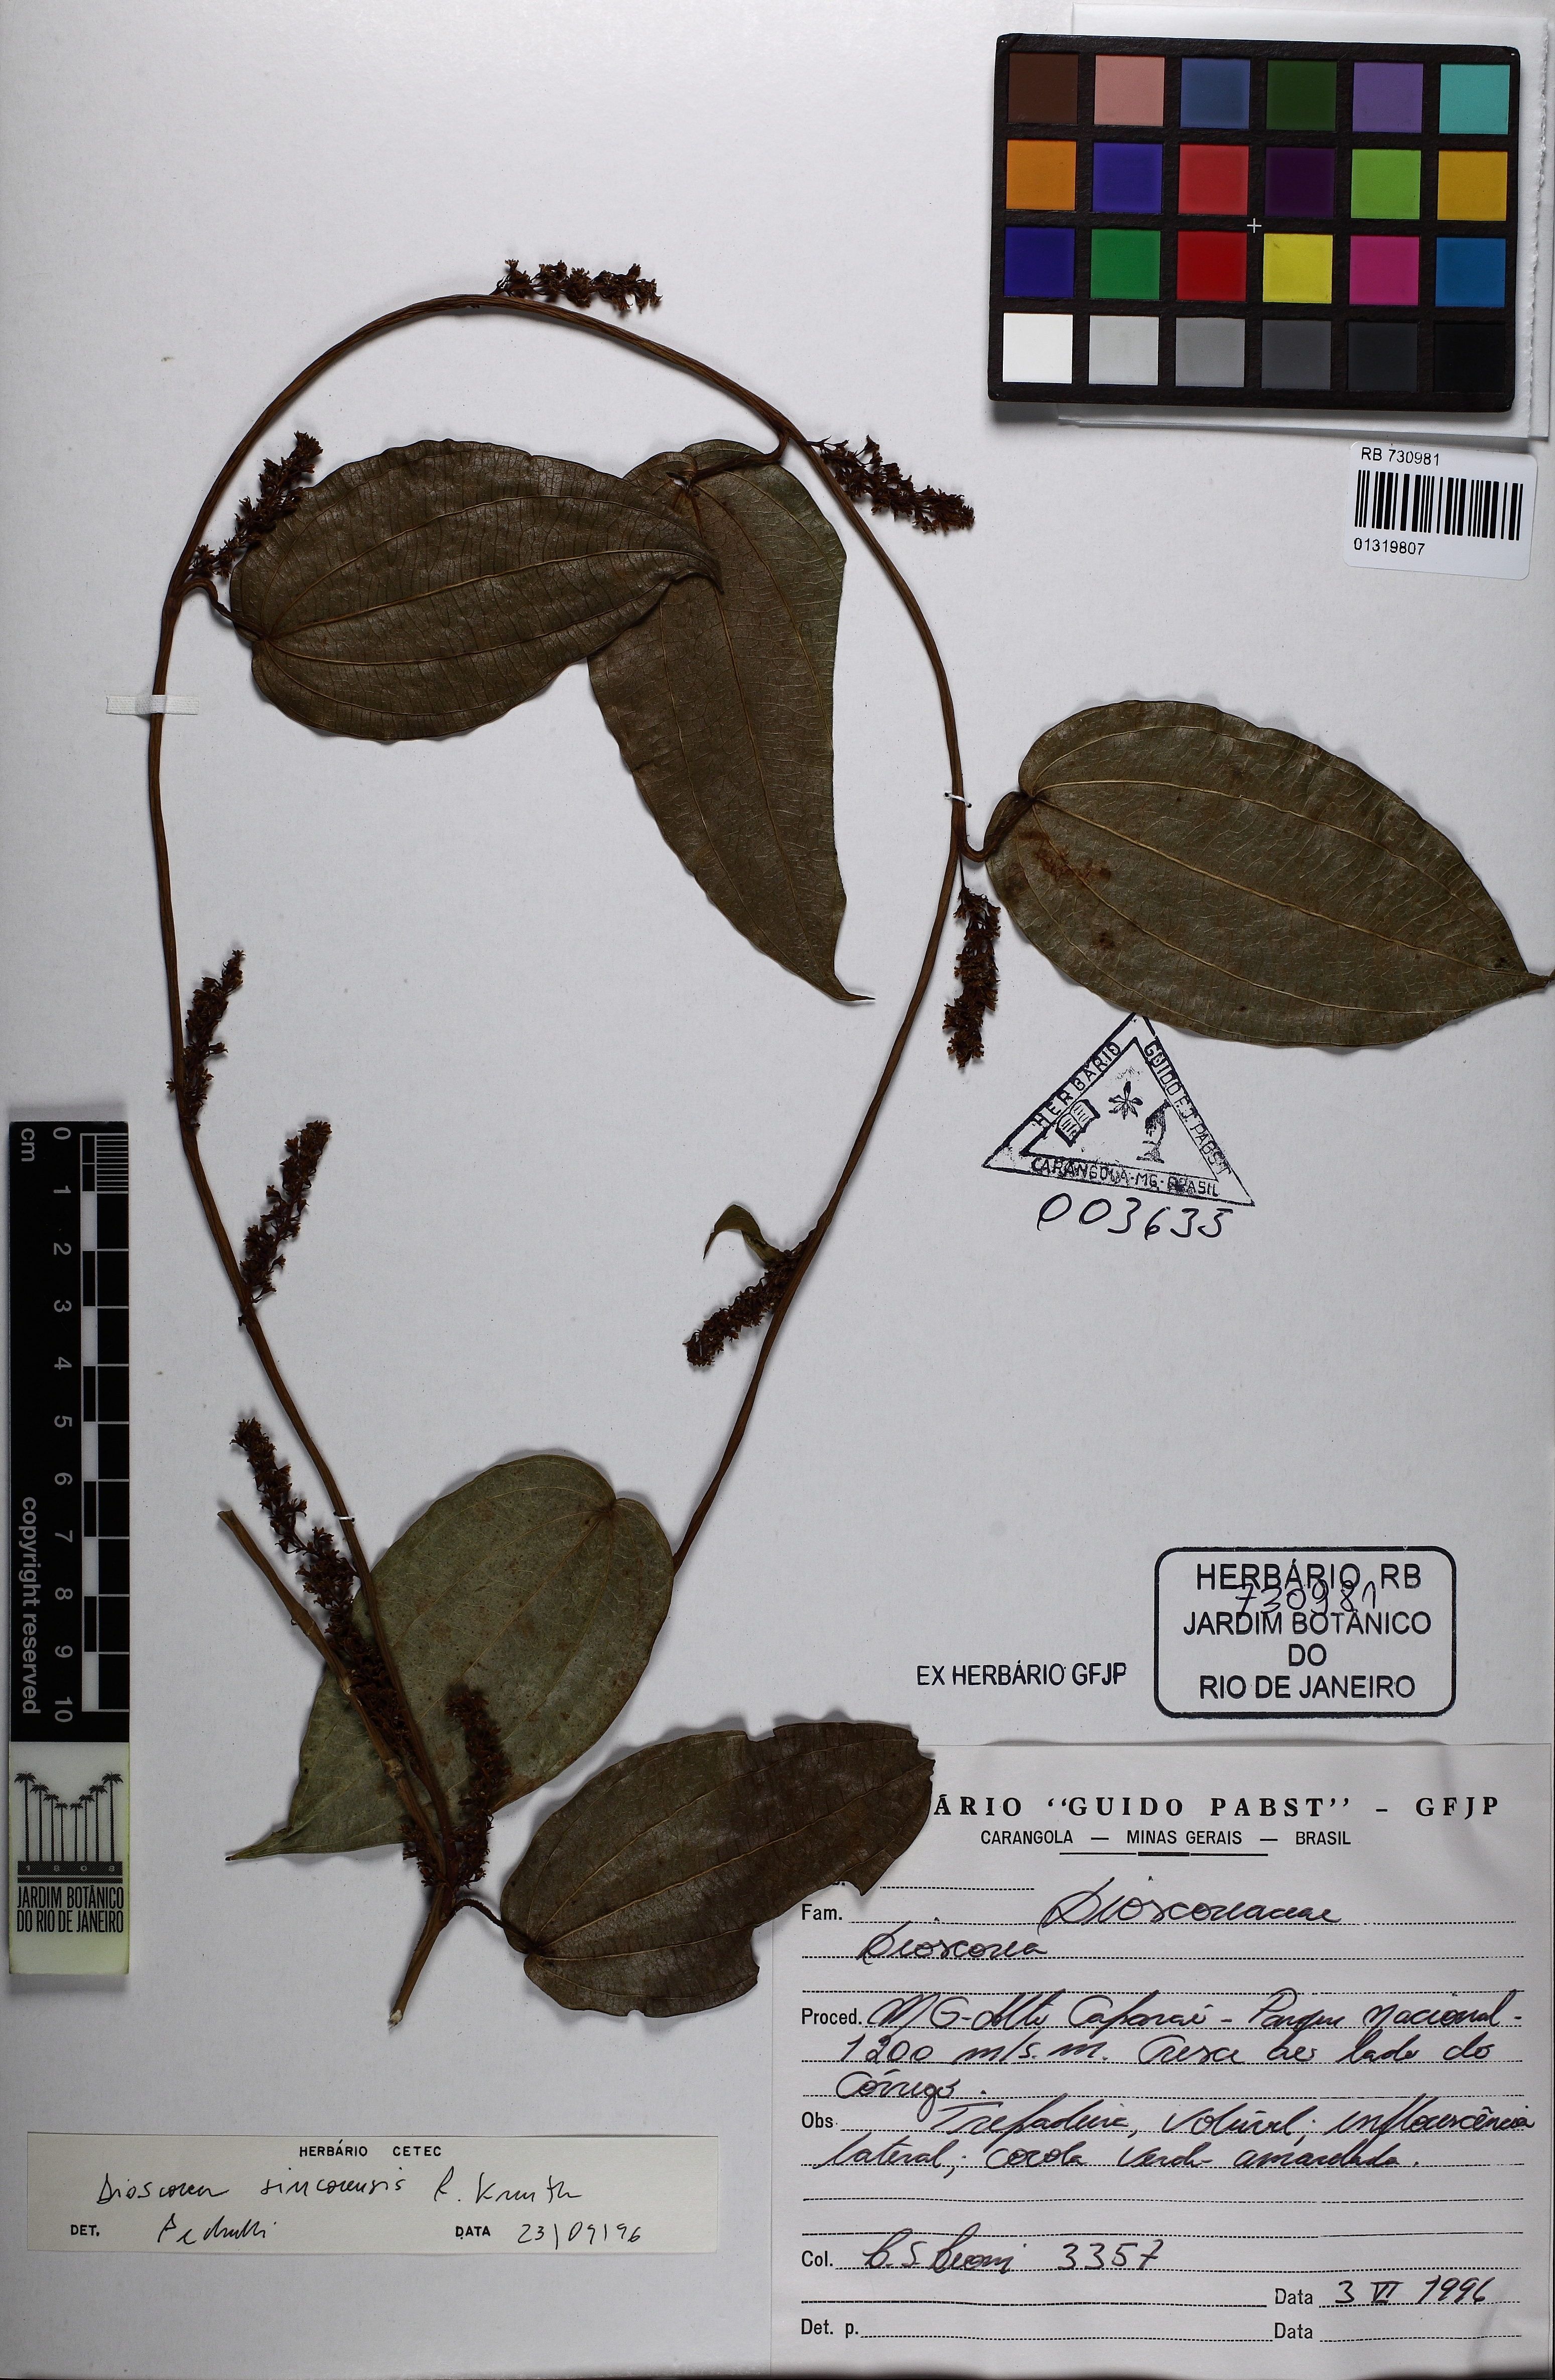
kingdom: Plantae
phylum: Tracheophyta
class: Liliopsida
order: Dioscoreales
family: Dioscoreaceae
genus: Dioscorea
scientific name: Dioscorea campanulata
